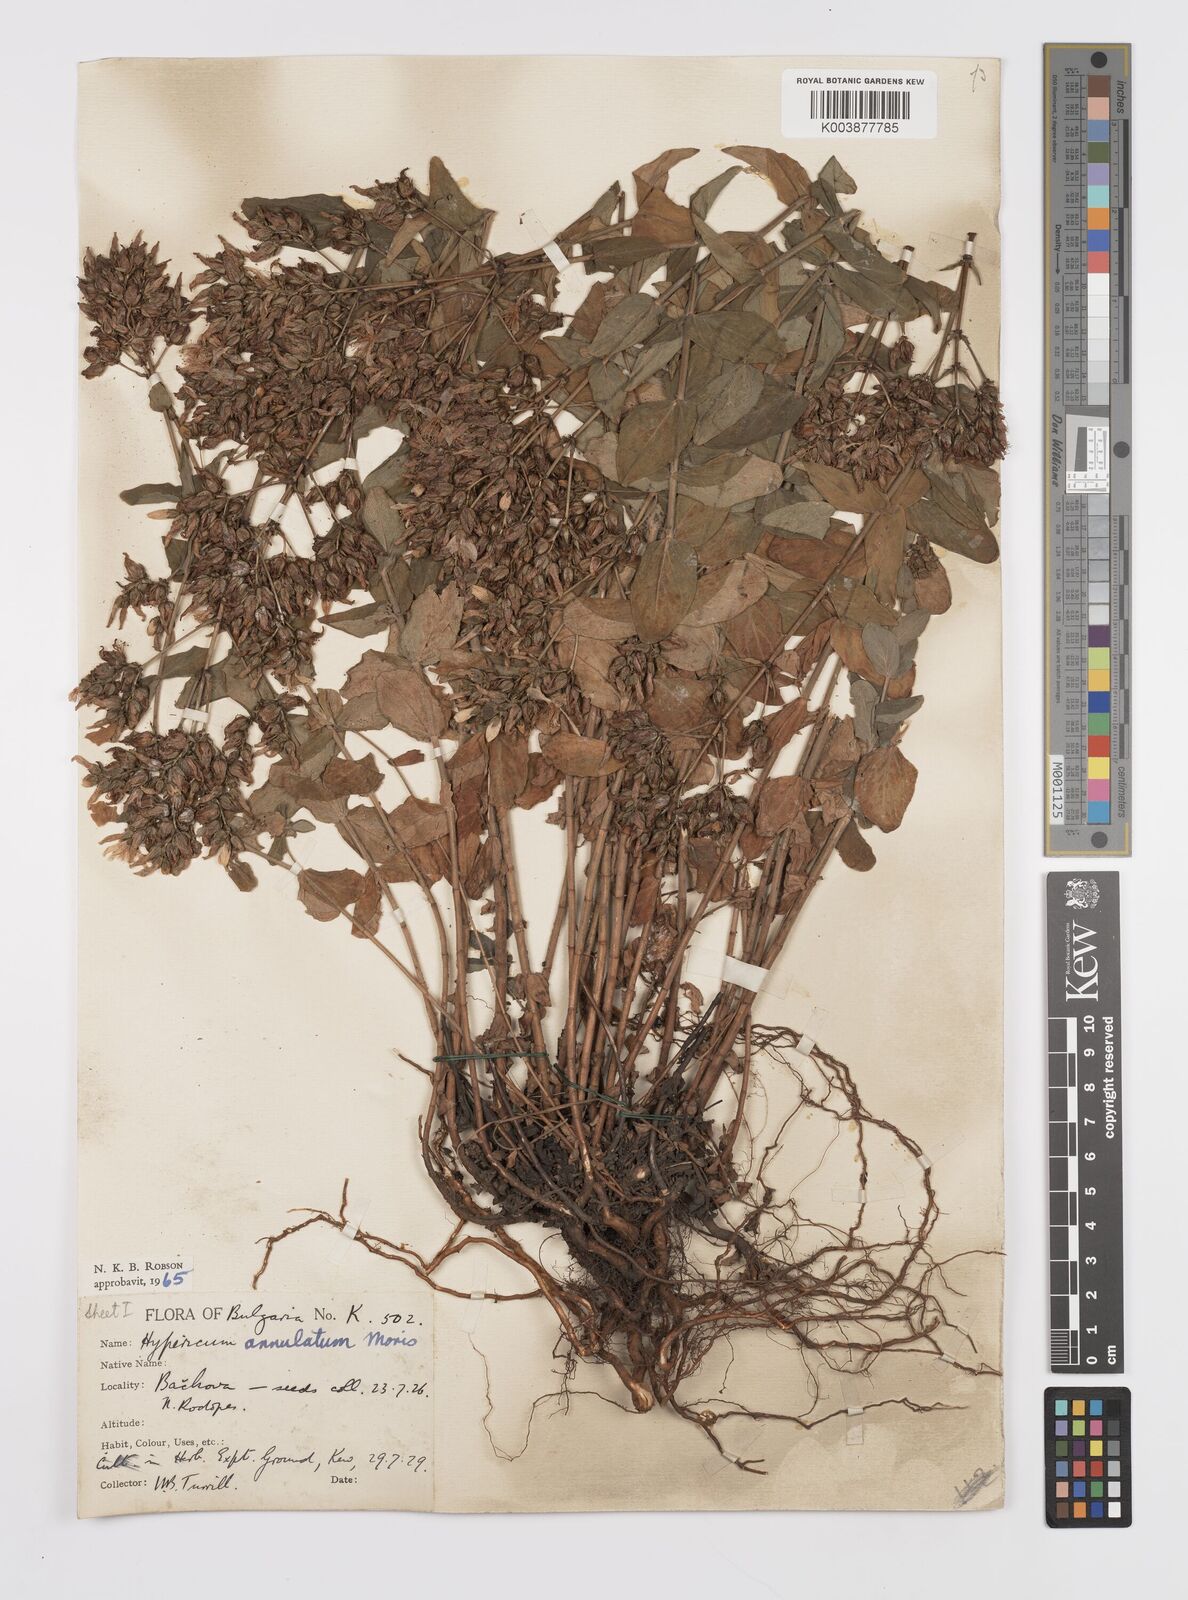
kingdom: Plantae
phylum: Tracheophyta
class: Magnoliopsida
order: Malpighiales
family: Hypericaceae
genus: Hypericum
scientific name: Hypericum annulatum
